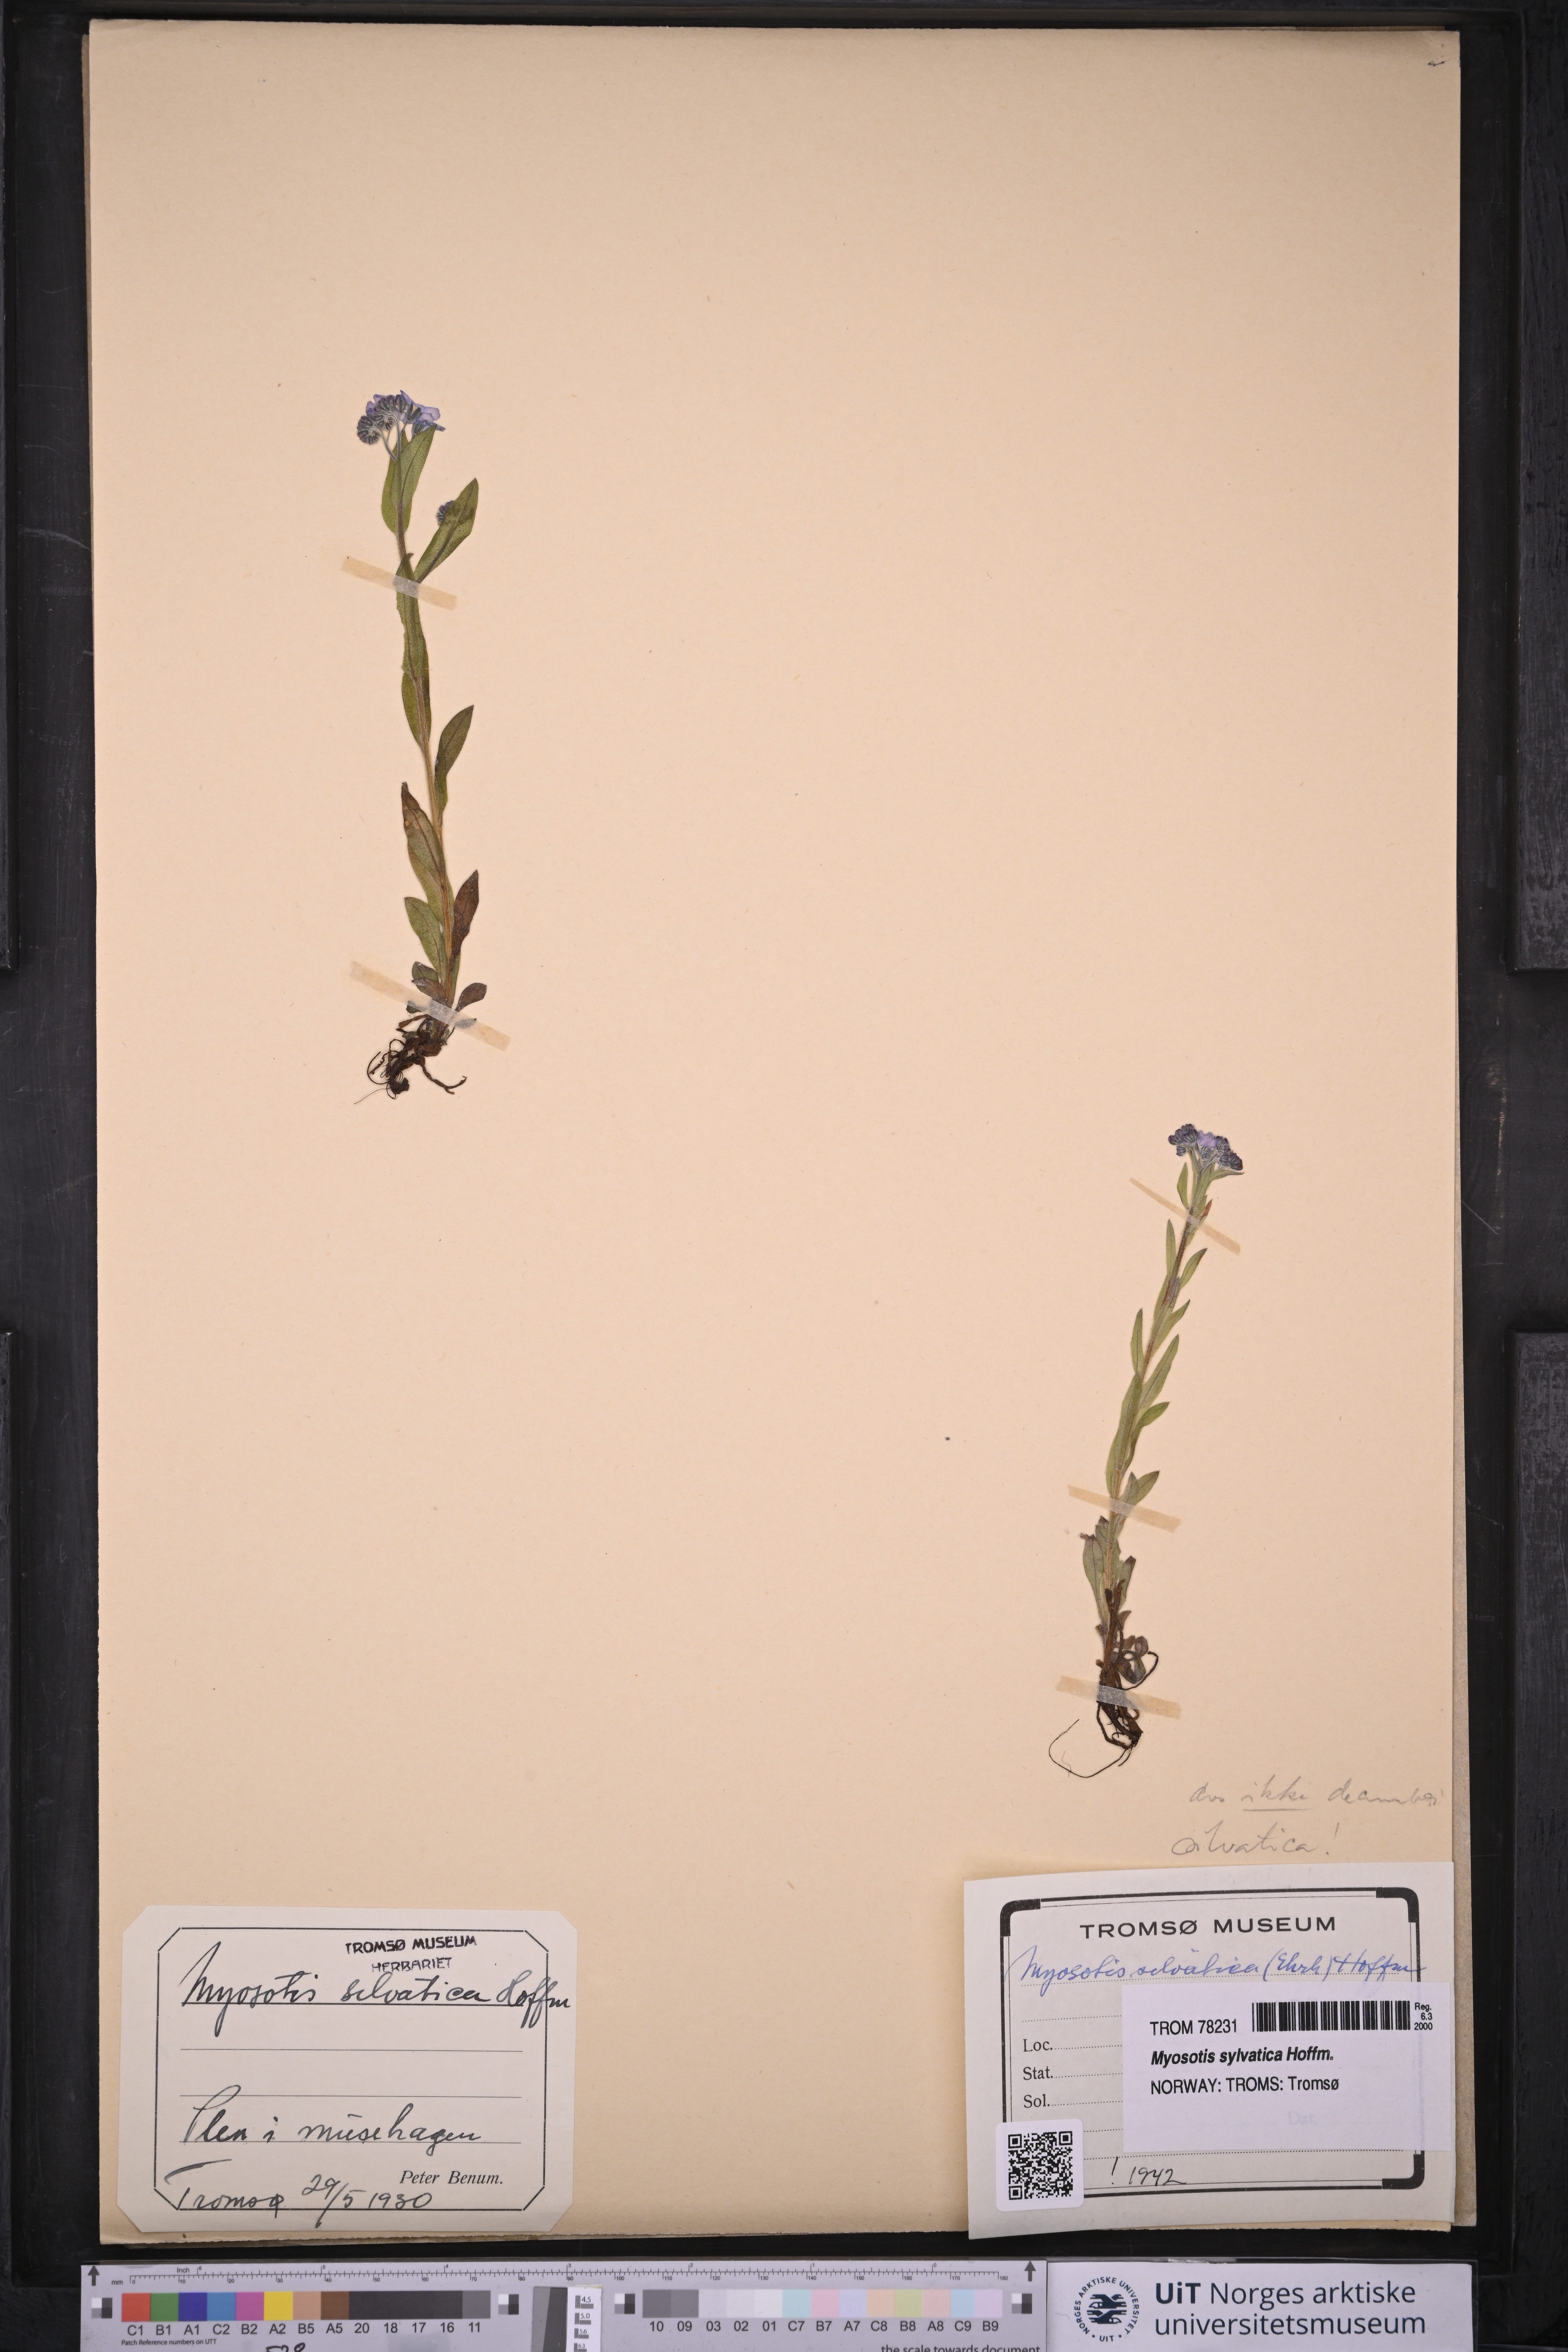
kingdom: Plantae
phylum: Tracheophyta
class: Magnoliopsida
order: Boraginales
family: Boraginaceae
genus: Myosotis
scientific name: Myosotis sylvatica
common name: Wood forget-me-not
